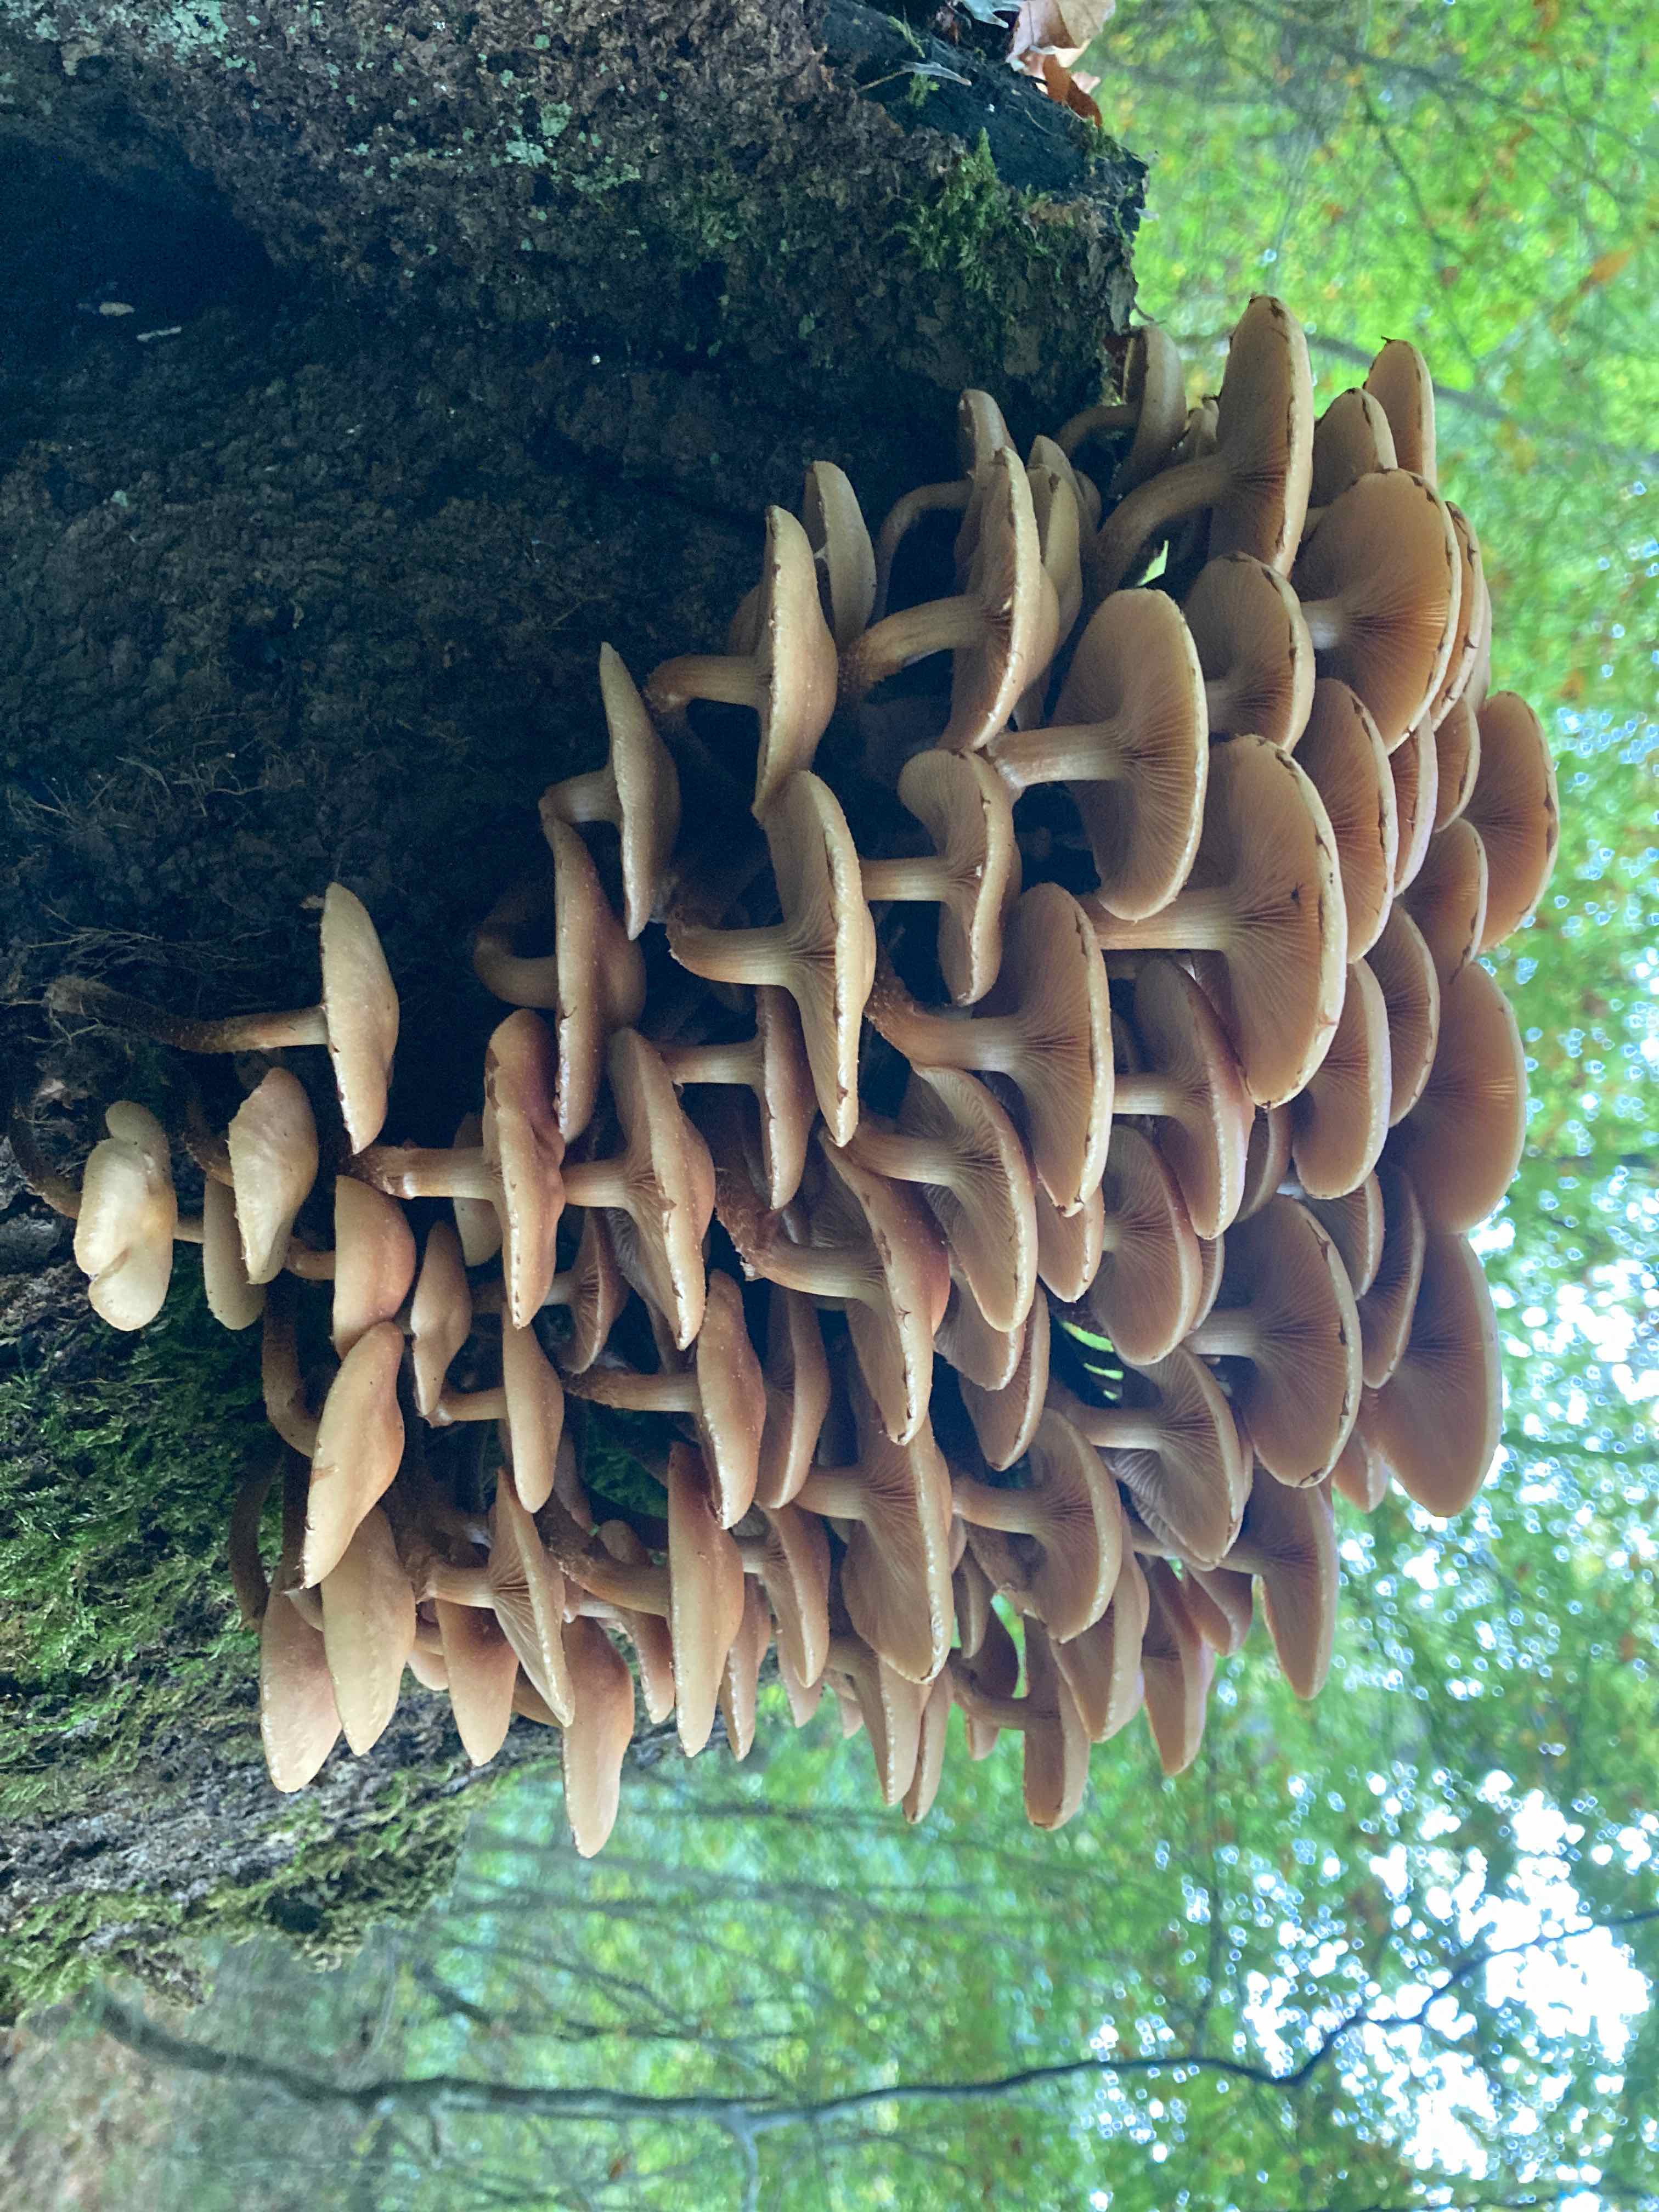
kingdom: Fungi
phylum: Basidiomycota
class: Agaricomycetes
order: Agaricales
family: Strophariaceae
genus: Kuehneromyces
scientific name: Kuehneromyces mutabilis
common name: foranderlig skælhat
